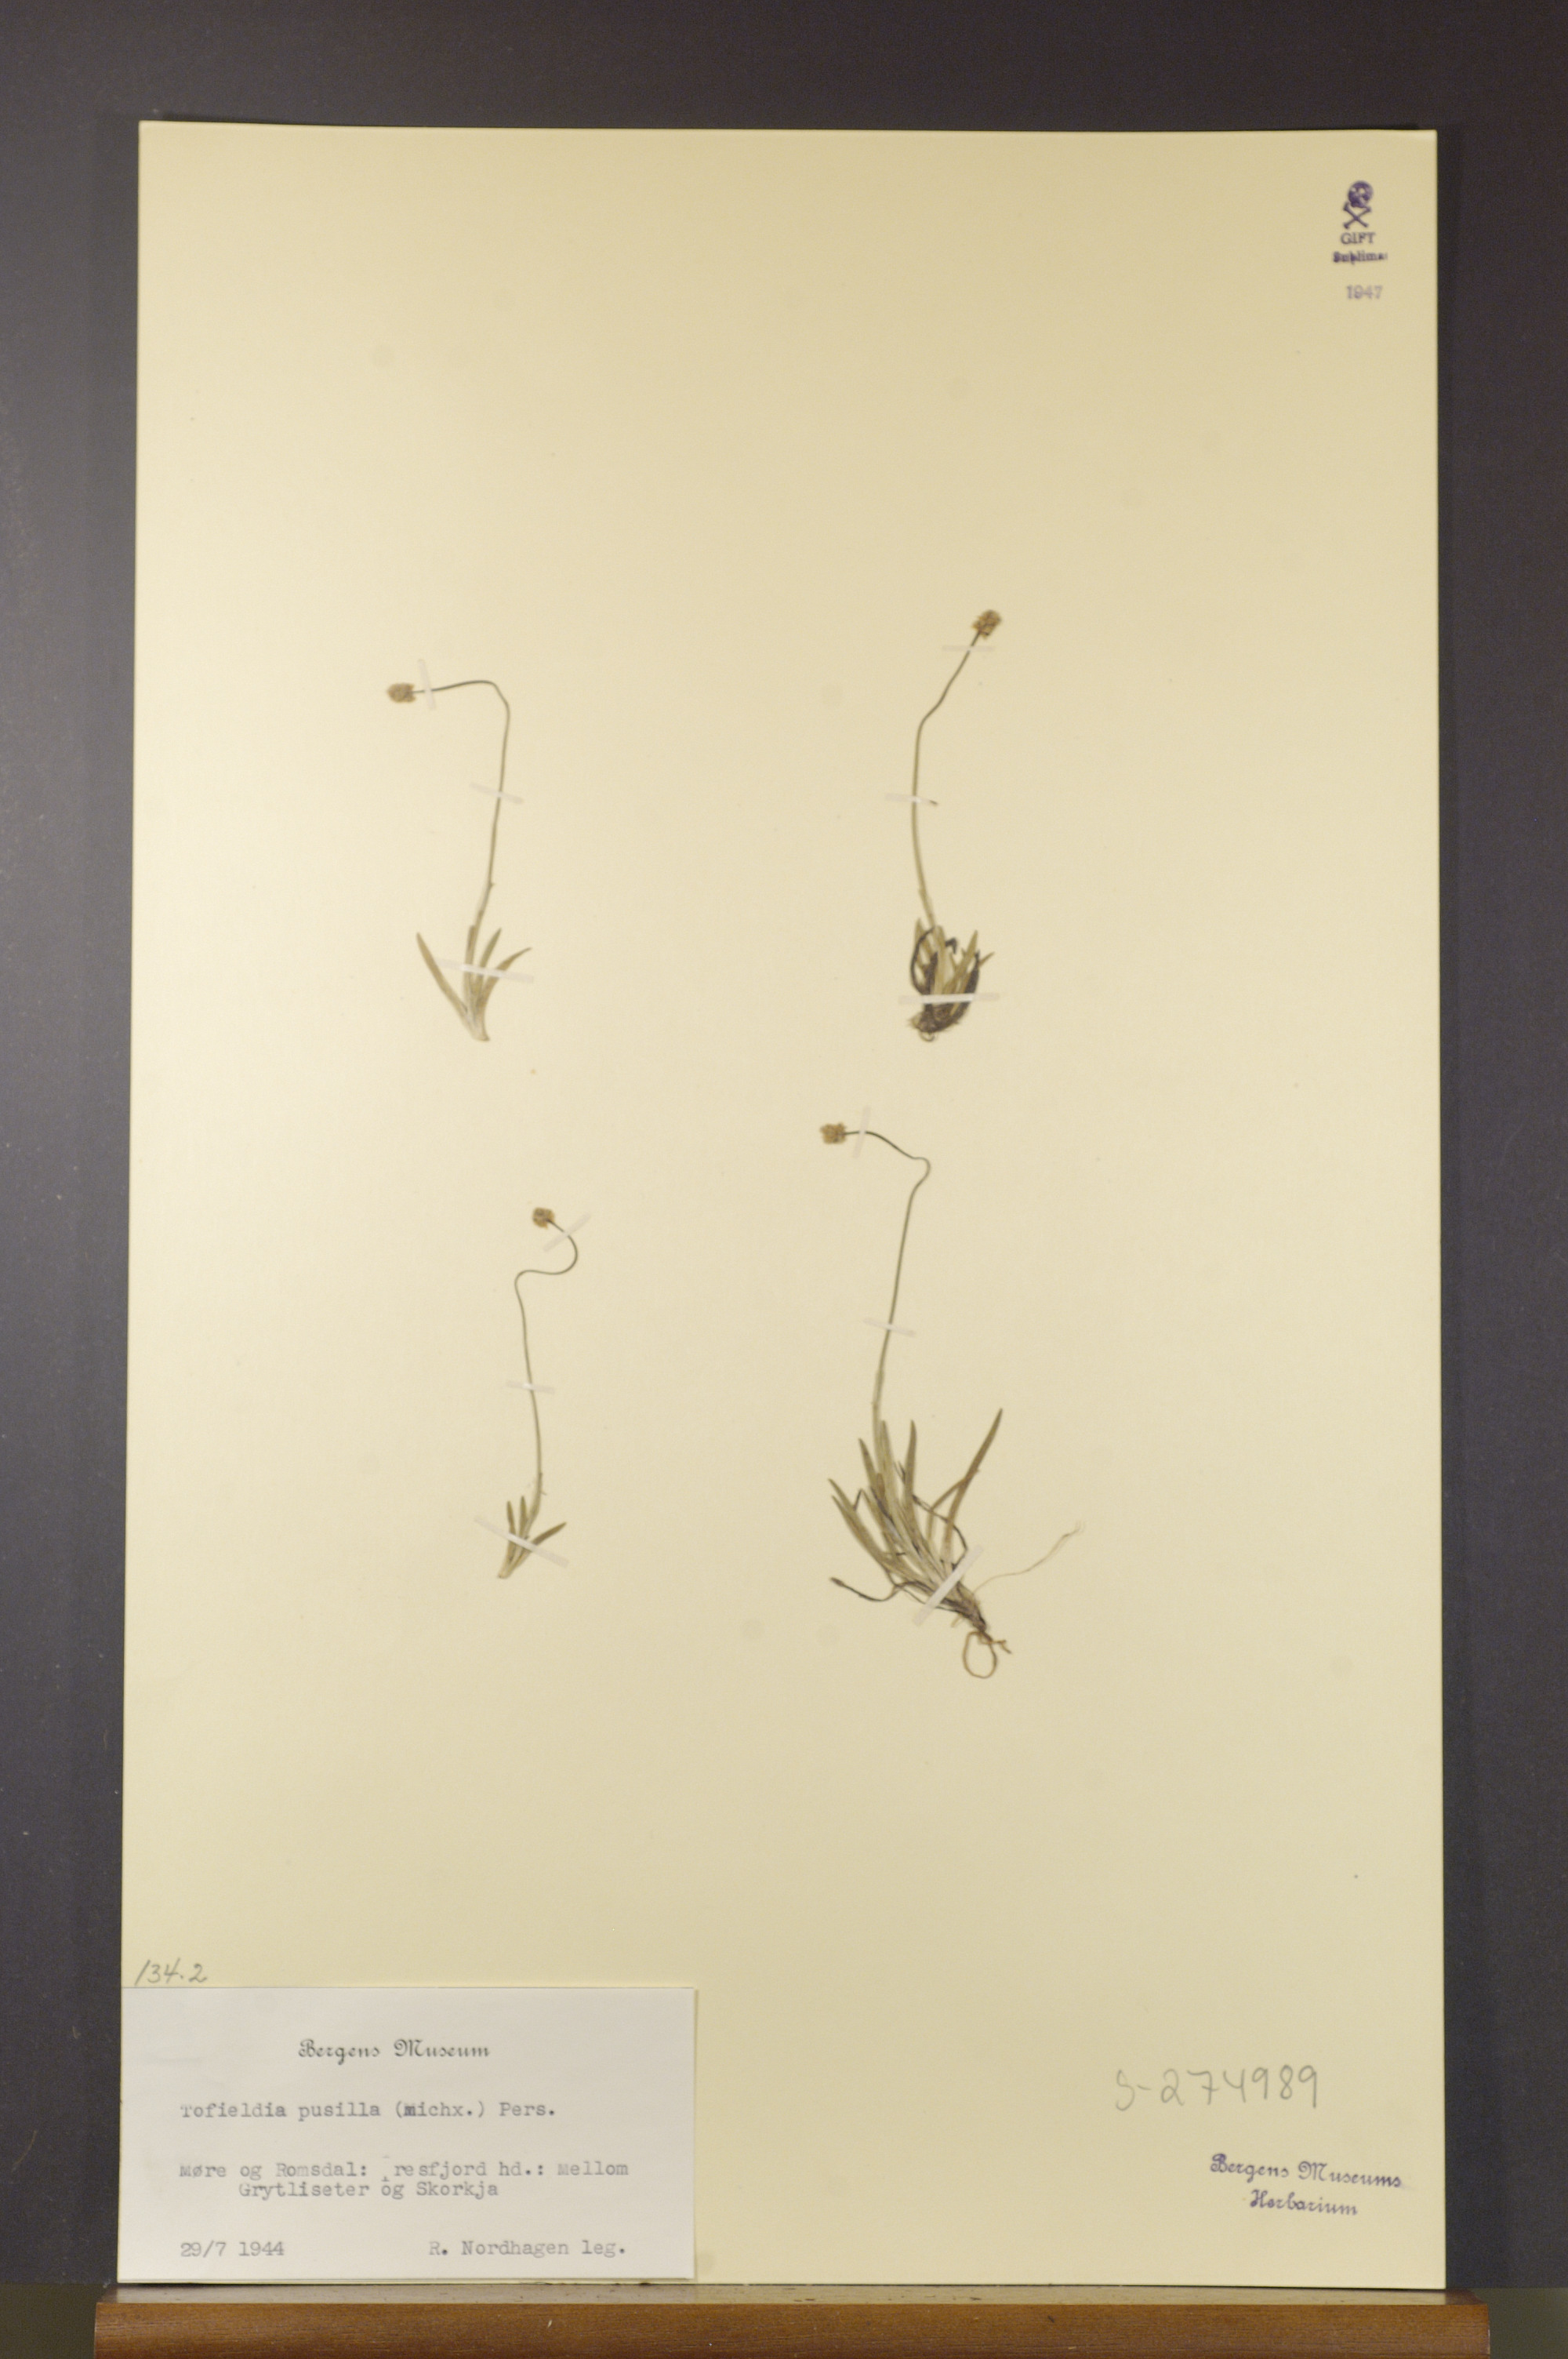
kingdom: Plantae
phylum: Tracheophyta
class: Liliopsida
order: Alismatales
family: Tofieldiaceae
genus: Tofieldia
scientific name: Tofieldia pusilla
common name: Scottish false asphodel
